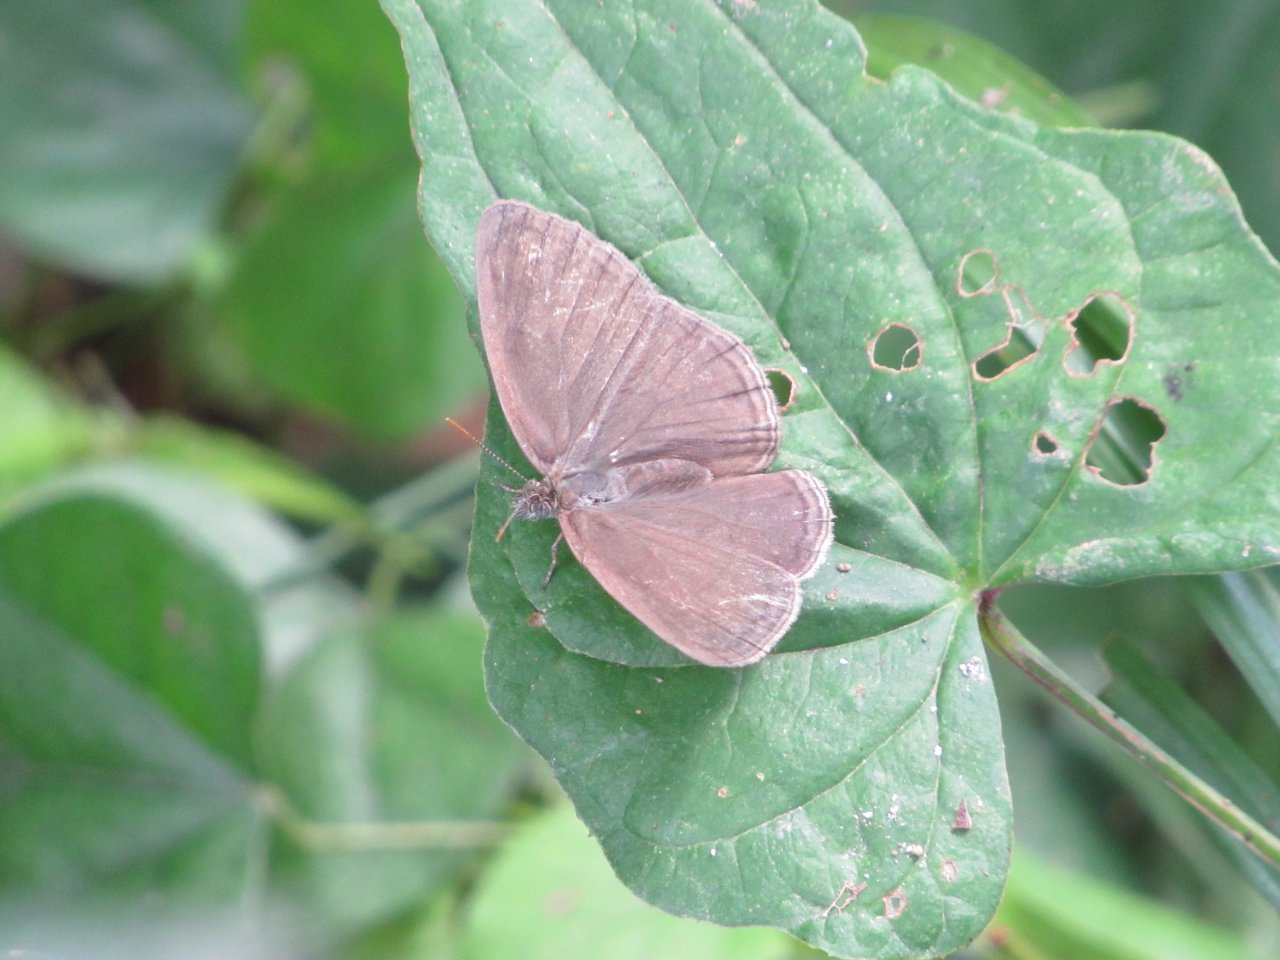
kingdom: Animalia
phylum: Arthropoda
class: Insecta
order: Lepidoptera
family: Nymphalidae
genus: Hermeuptychia
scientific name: Hermeuptychia intricata
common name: Intricate Satyr
